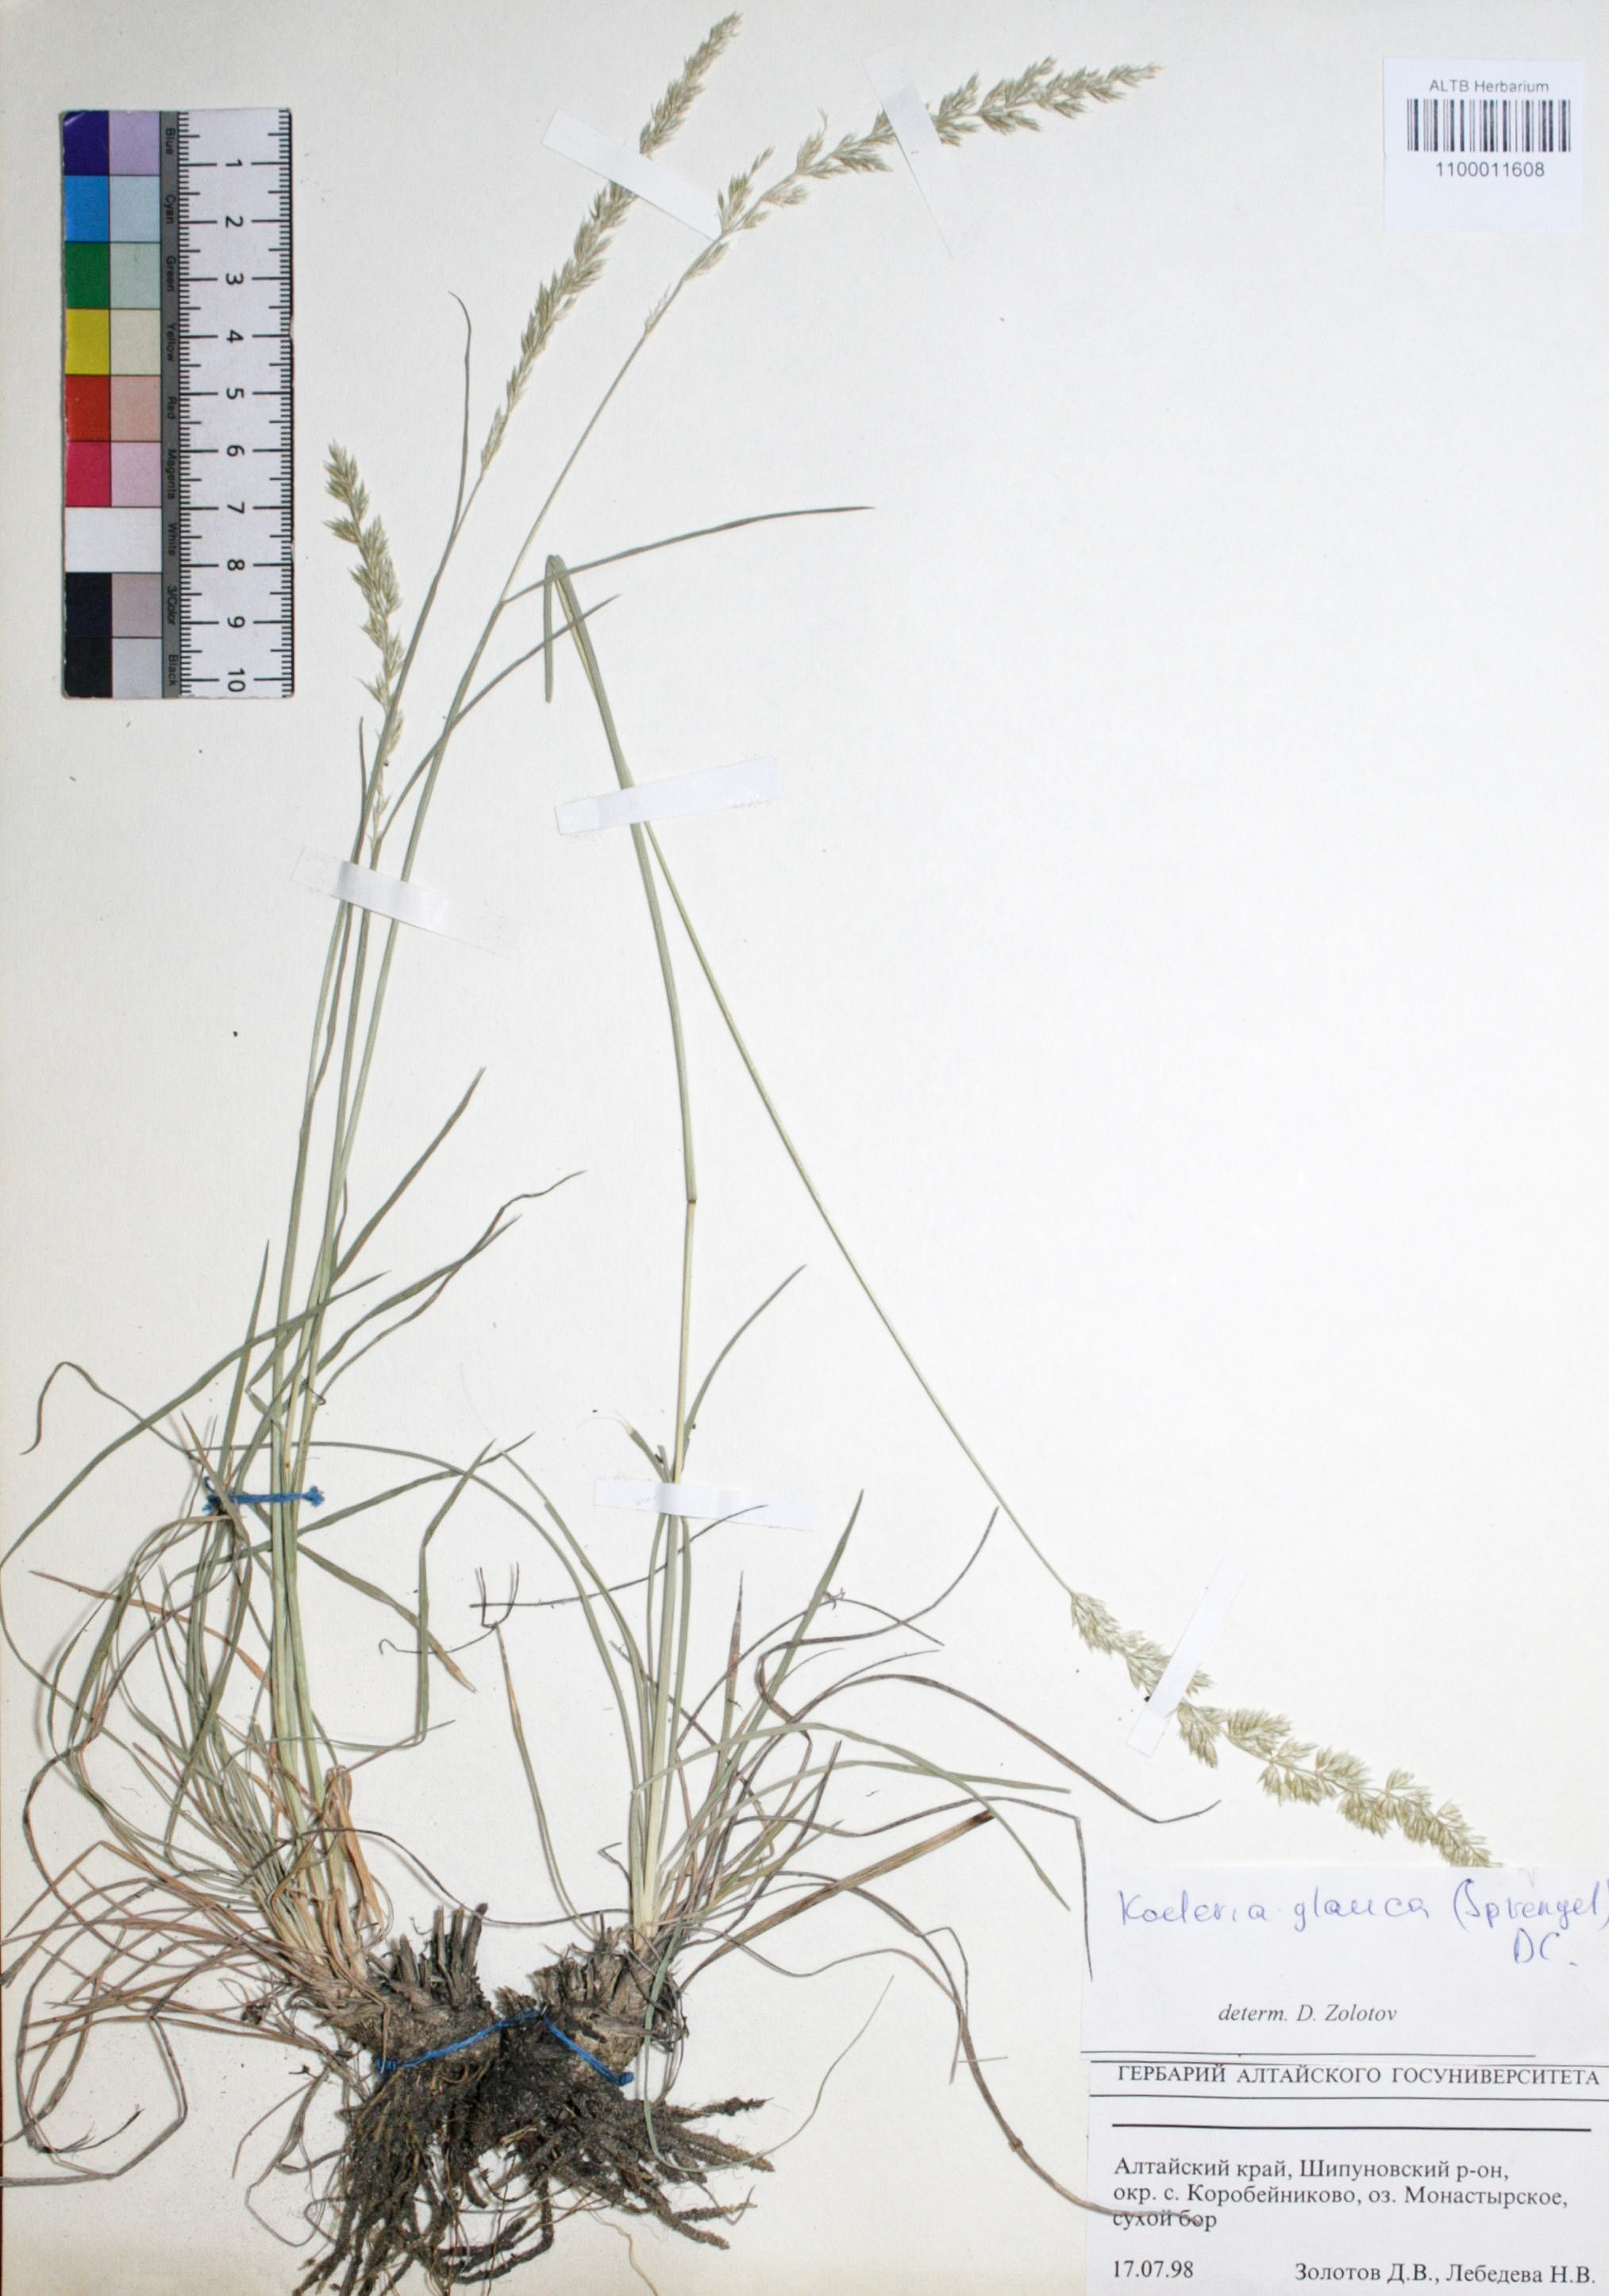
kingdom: Plantae
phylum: Tracheophyta
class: Liliopsida
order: Poales
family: Poaceae
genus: Koeleria
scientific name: Koeleria glauca
